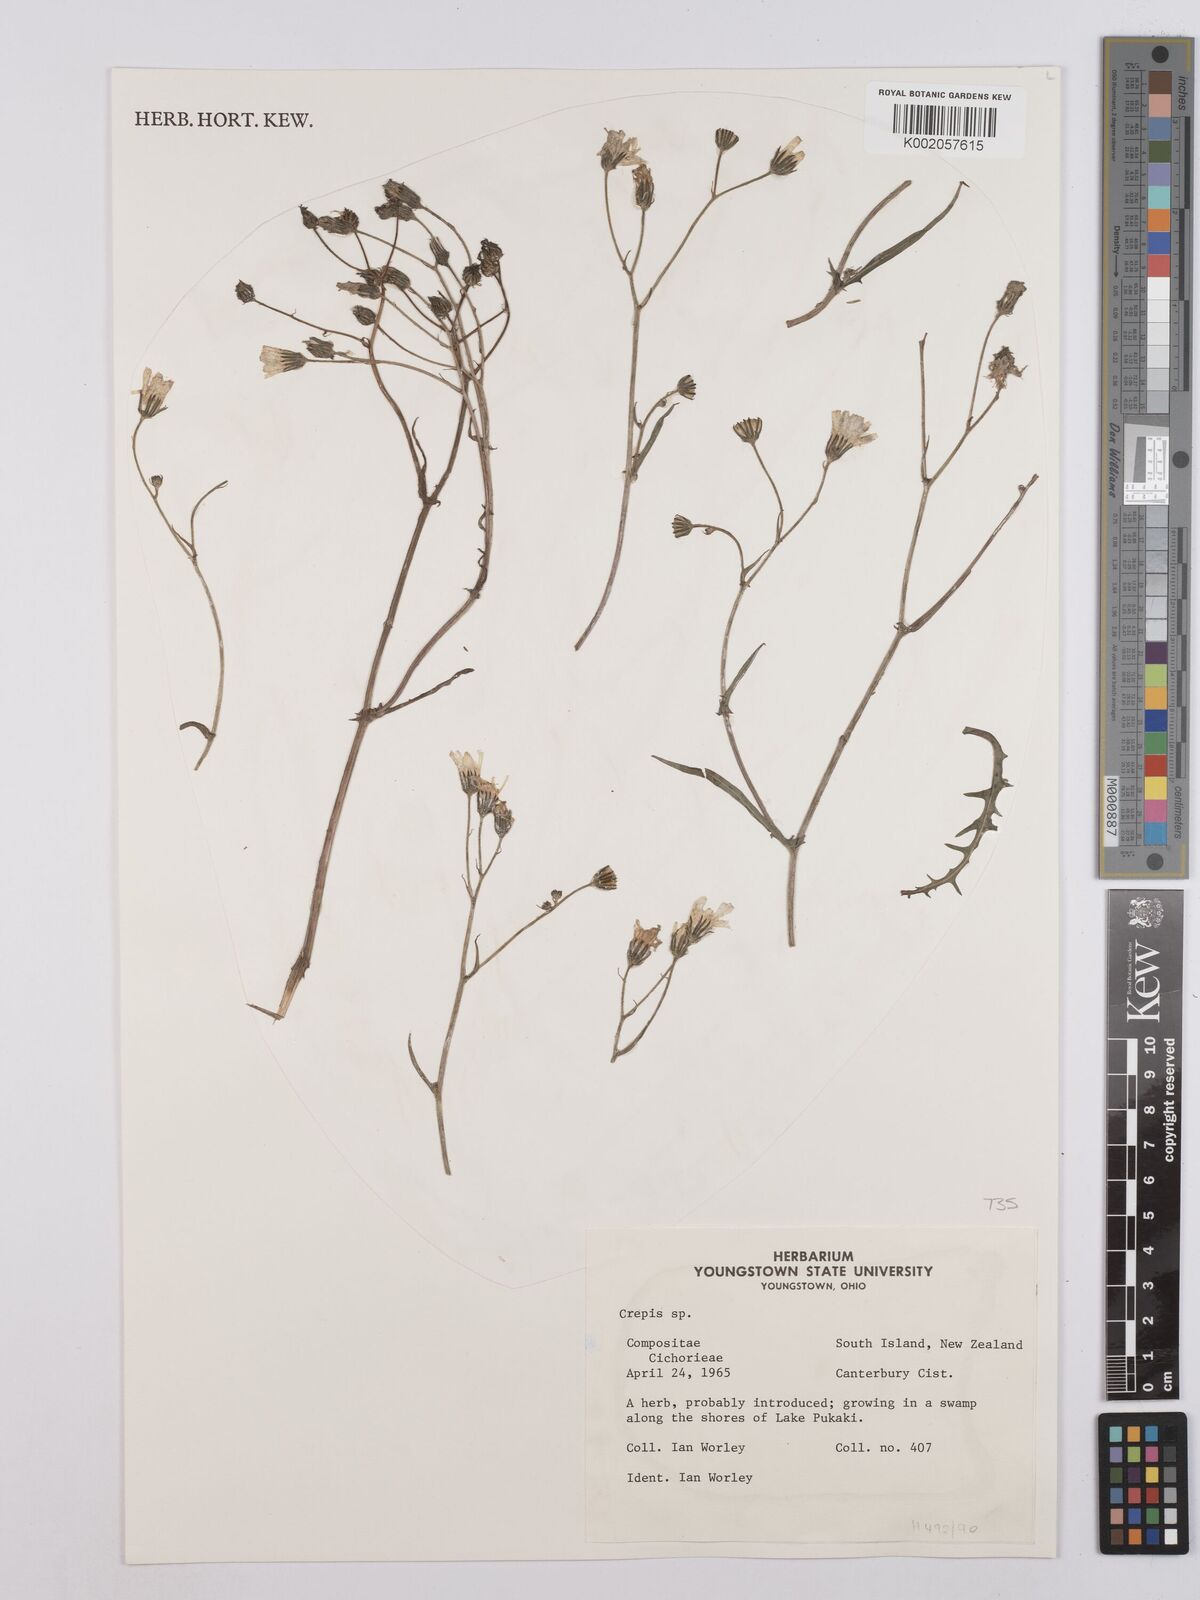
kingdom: Plantae
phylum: Tracheophyta
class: Magnoliopsida
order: Asterales
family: Asteraceae
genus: Crepis
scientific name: Crepis
